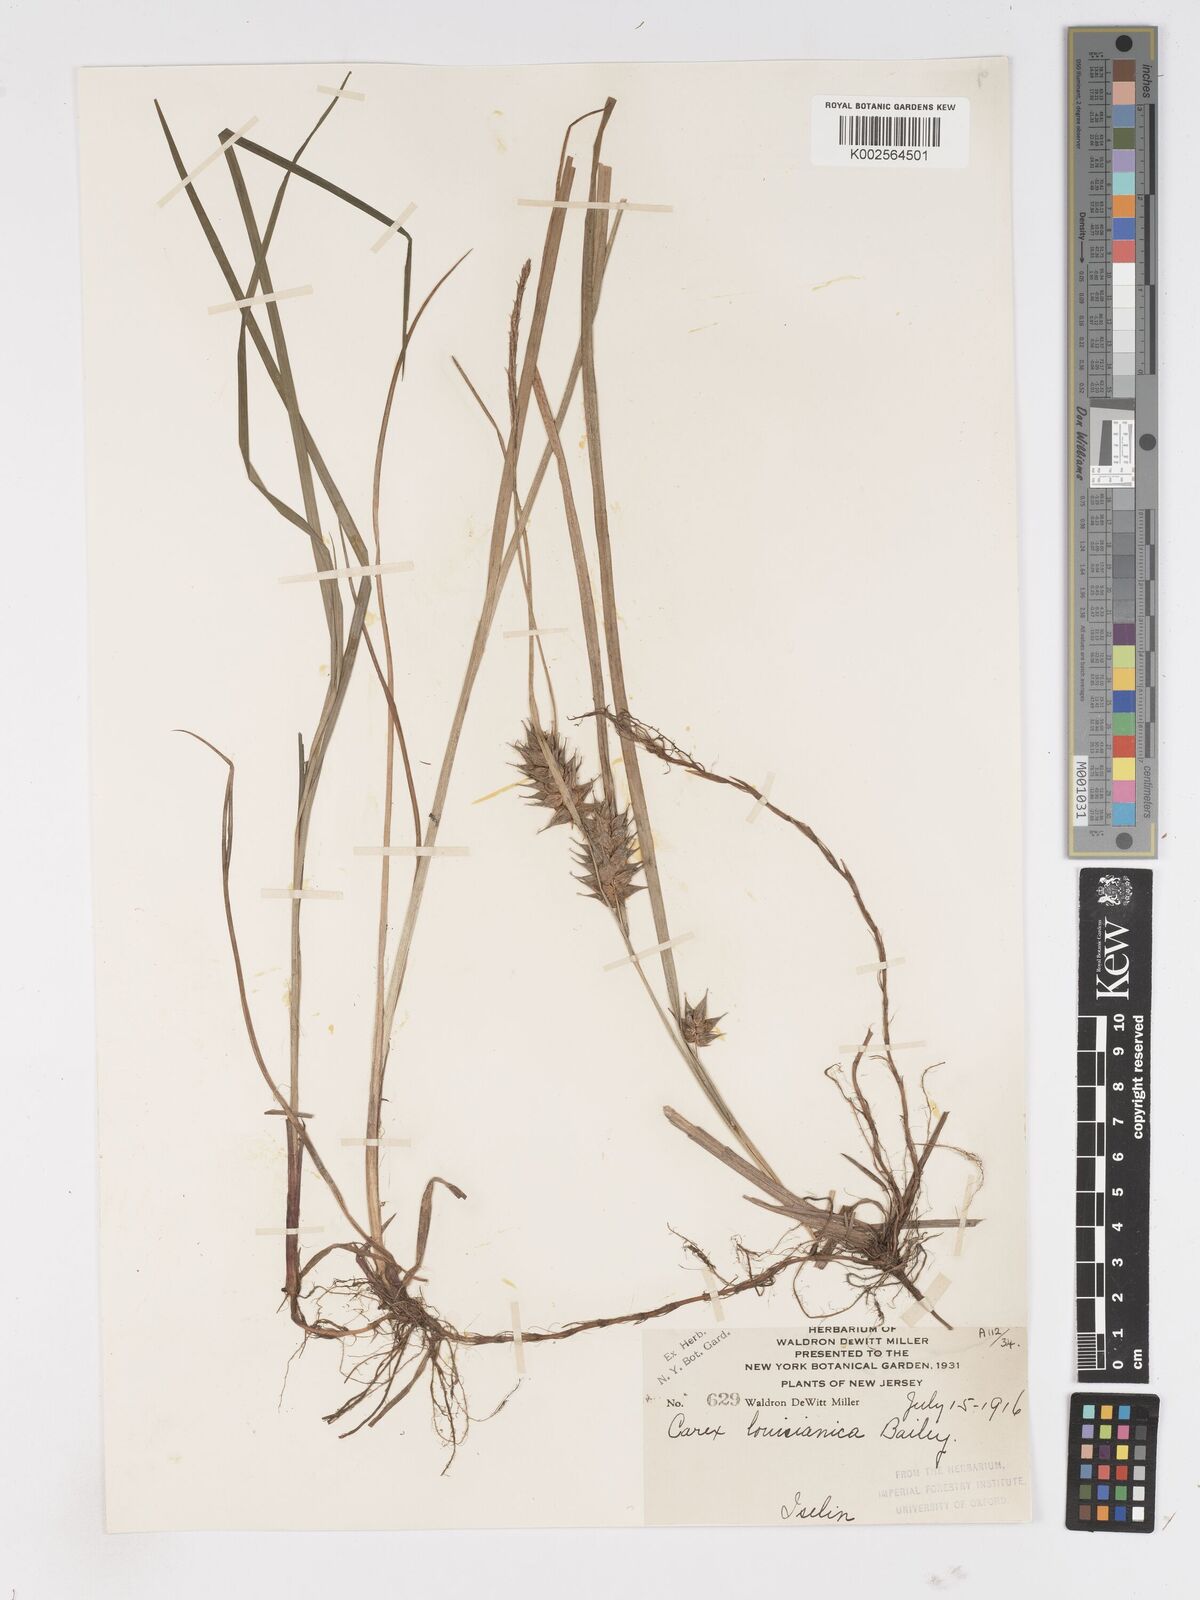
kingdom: Plantae
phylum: Tracheophyta
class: Liliopsida
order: Poales
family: Cyperaceae
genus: Carex
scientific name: Carex louisianica
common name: Louisiana sedge
